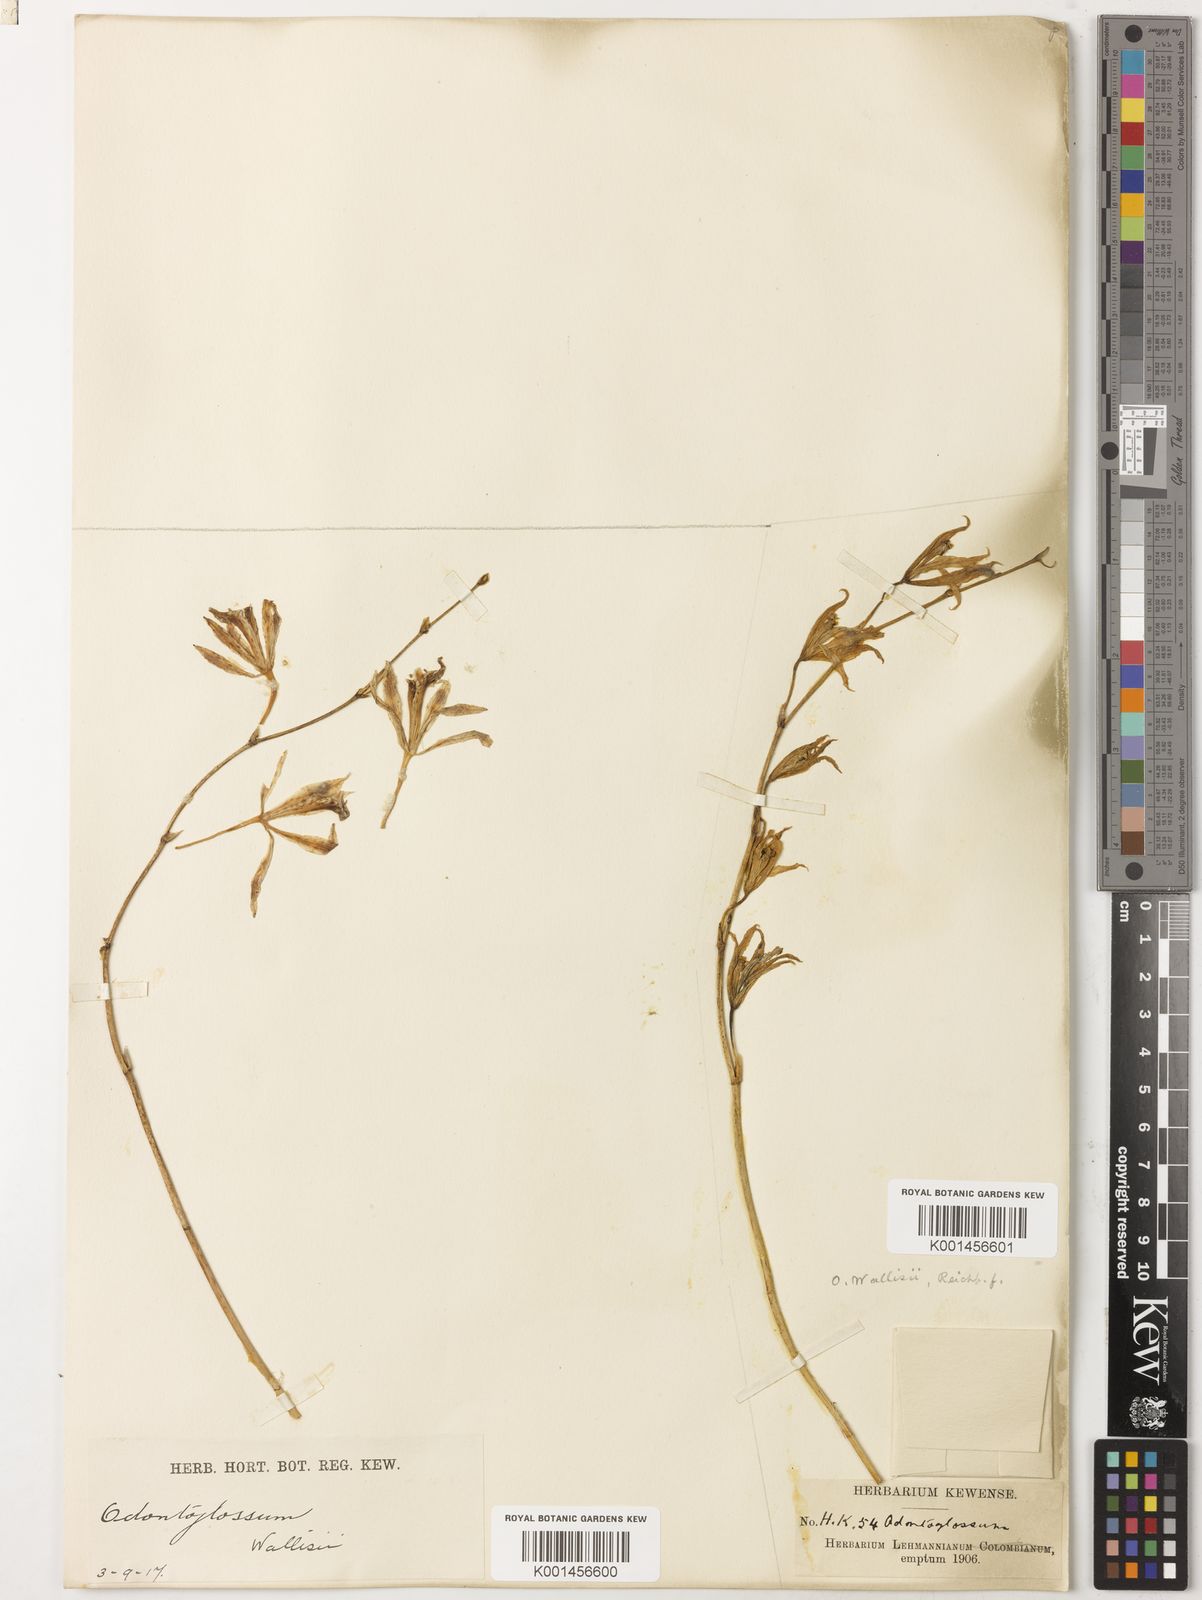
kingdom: Plantae
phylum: Tracheophyta
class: Liliopsida
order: Asparagales
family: Orchidaceae
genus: Oncidium
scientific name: Oncidium wallisii
